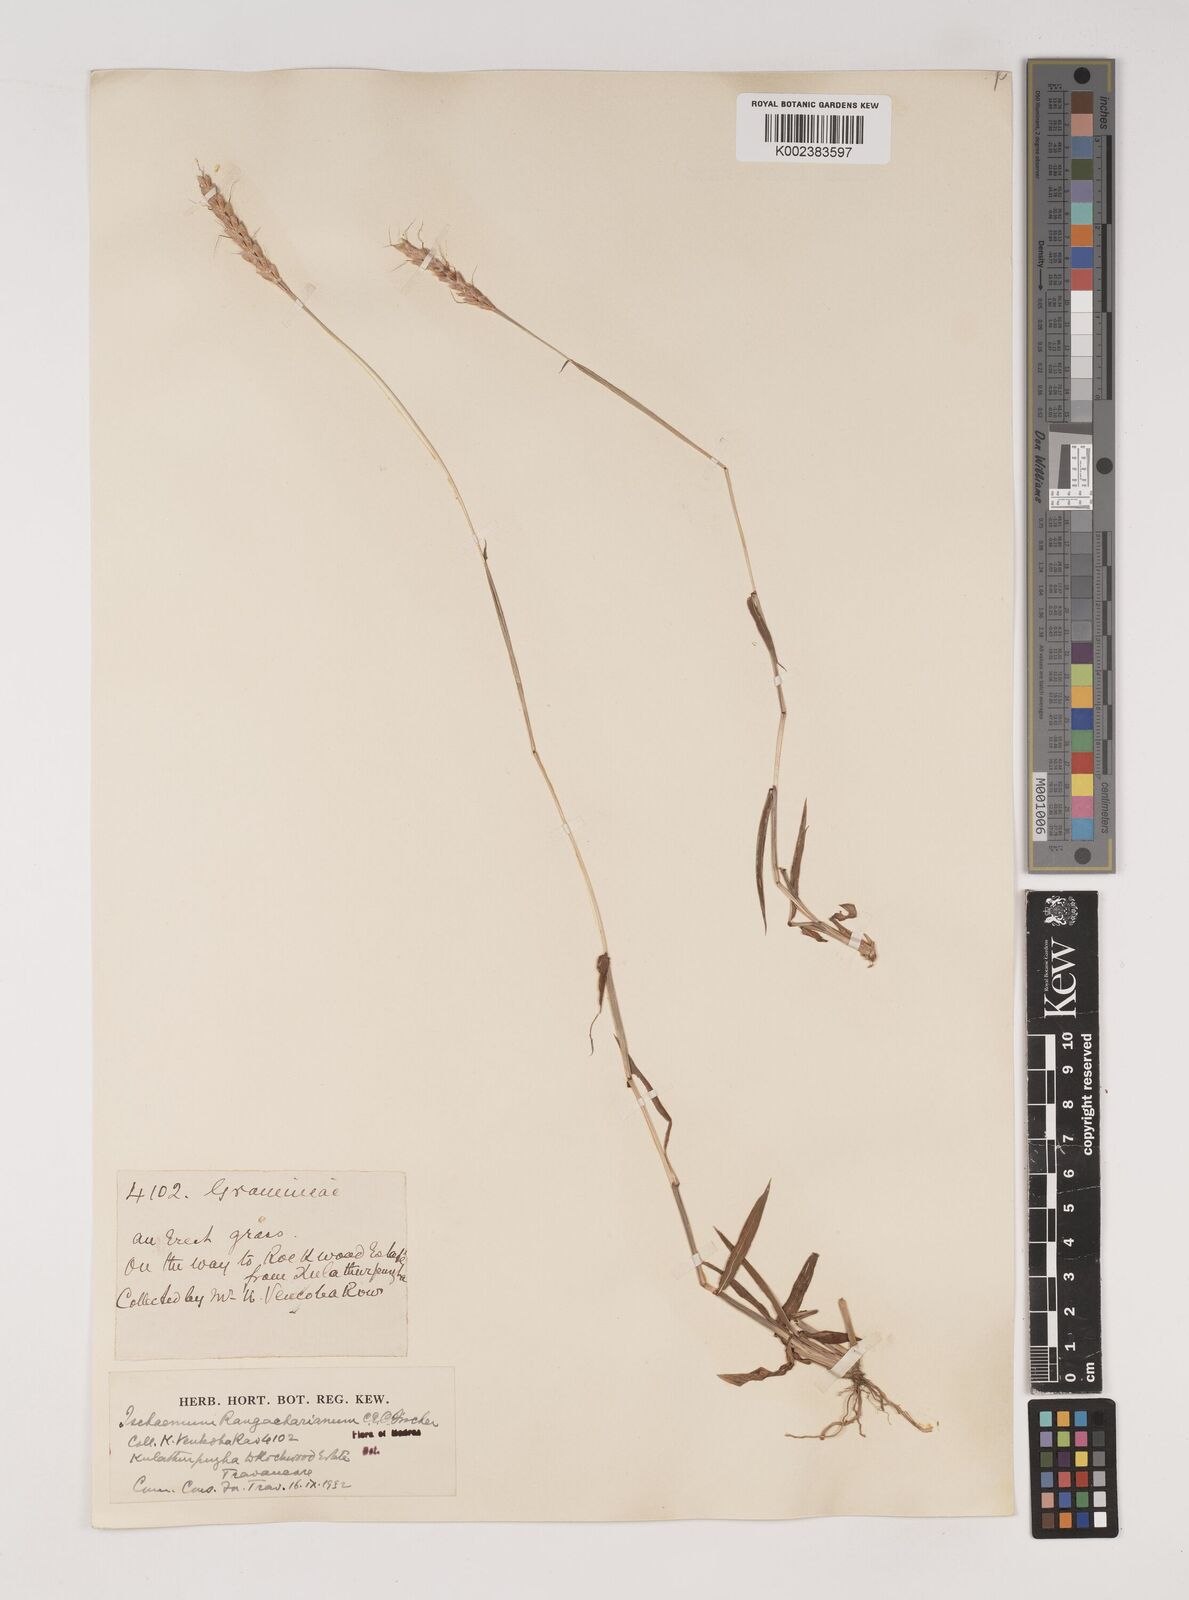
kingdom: Plantae
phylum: Tracheophyta
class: Liliopsida
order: Poales
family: Poaceae
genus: Ischaemum
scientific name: Ischaemum rangacharianum
